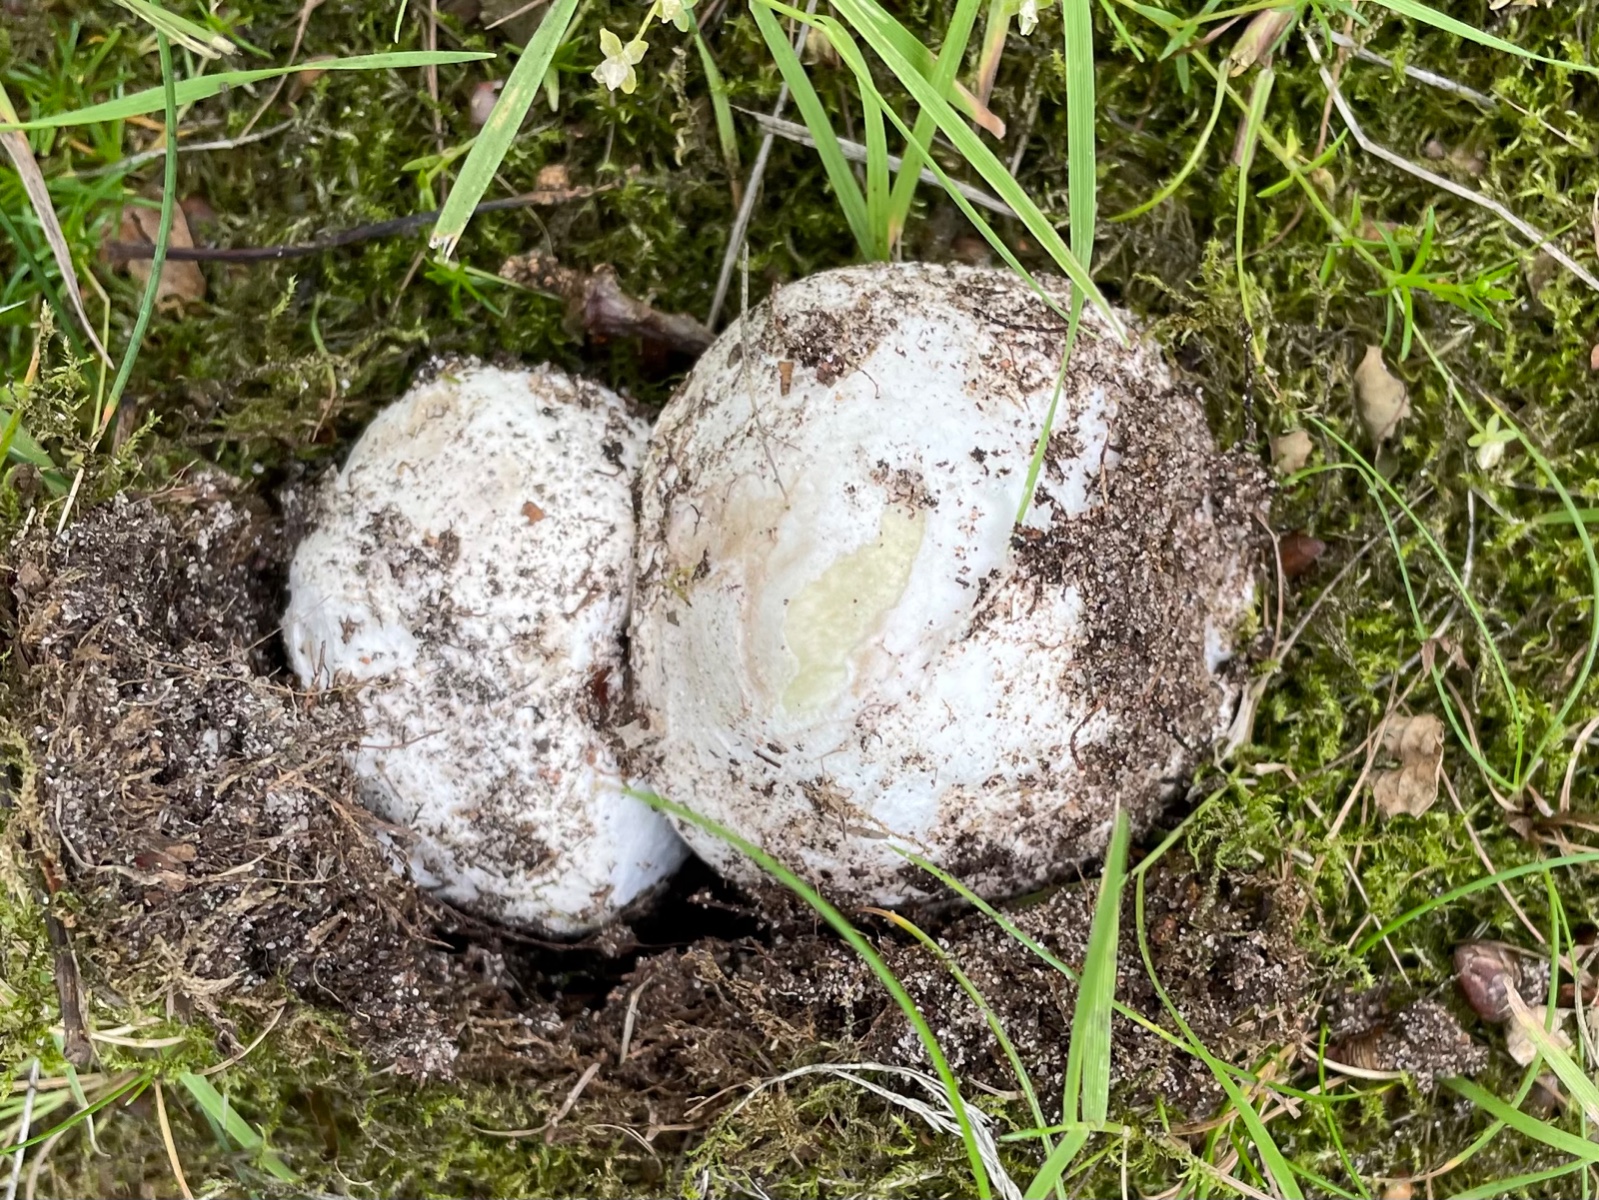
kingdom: Fungi
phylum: Basidiomycota
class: Agaricomycetes
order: Agaricales
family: Amanitaceae
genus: Amanita
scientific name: Amanita phalloides
